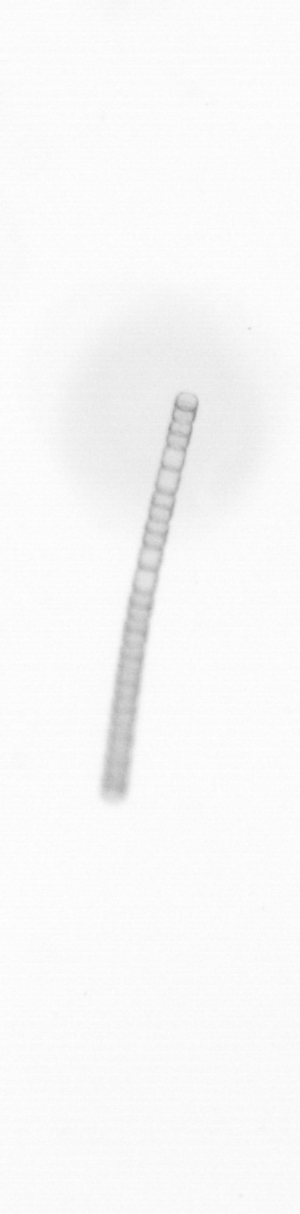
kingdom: Chromista
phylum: Ochrophyta
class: Bacillariophyceae
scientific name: Bacillariophyceae
